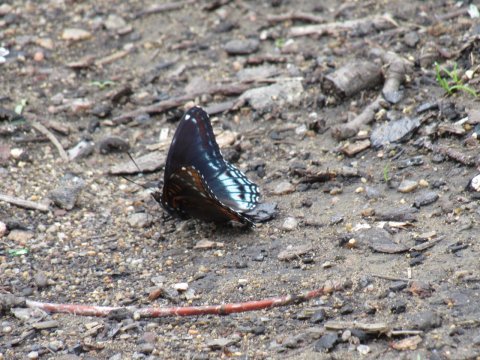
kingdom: Animalia
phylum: Arthropoda
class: Insecta
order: Lepidoptera
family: Nymphalidae
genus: Limenitis
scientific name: Limenitis arthemis
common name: Red-spotted Admiral
